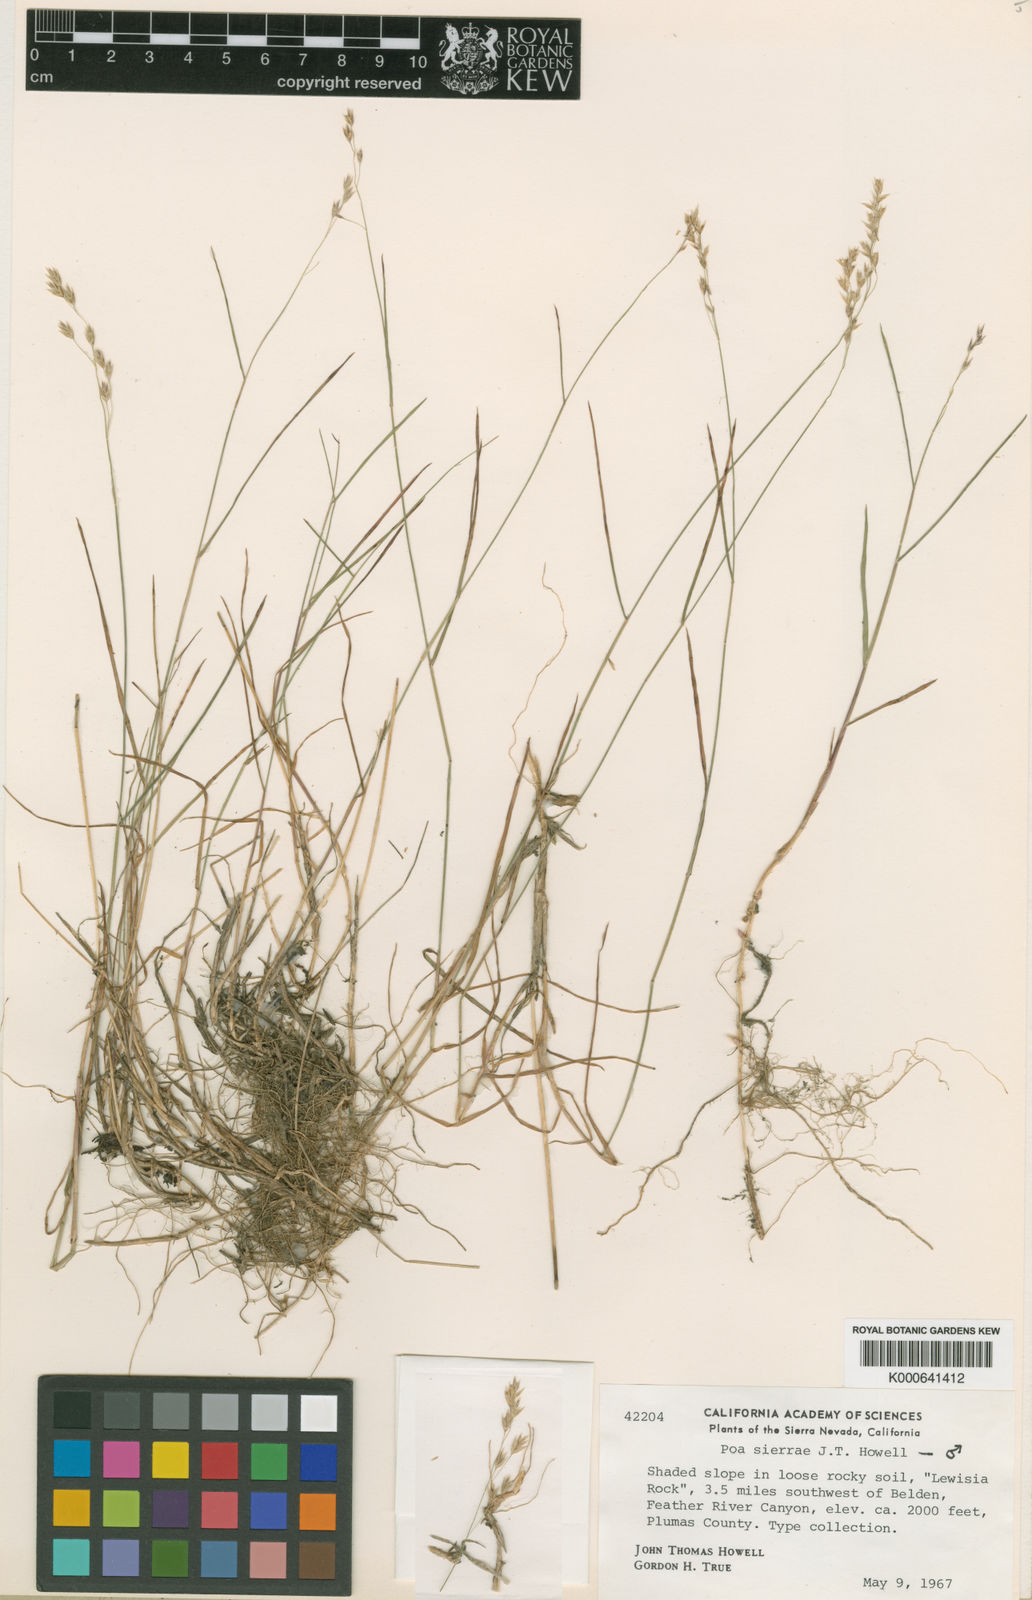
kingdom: Plantae
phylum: Tracheophyta
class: Liliopsida
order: Poales
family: Poaceae
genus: Poa
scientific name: Poa sierrae
